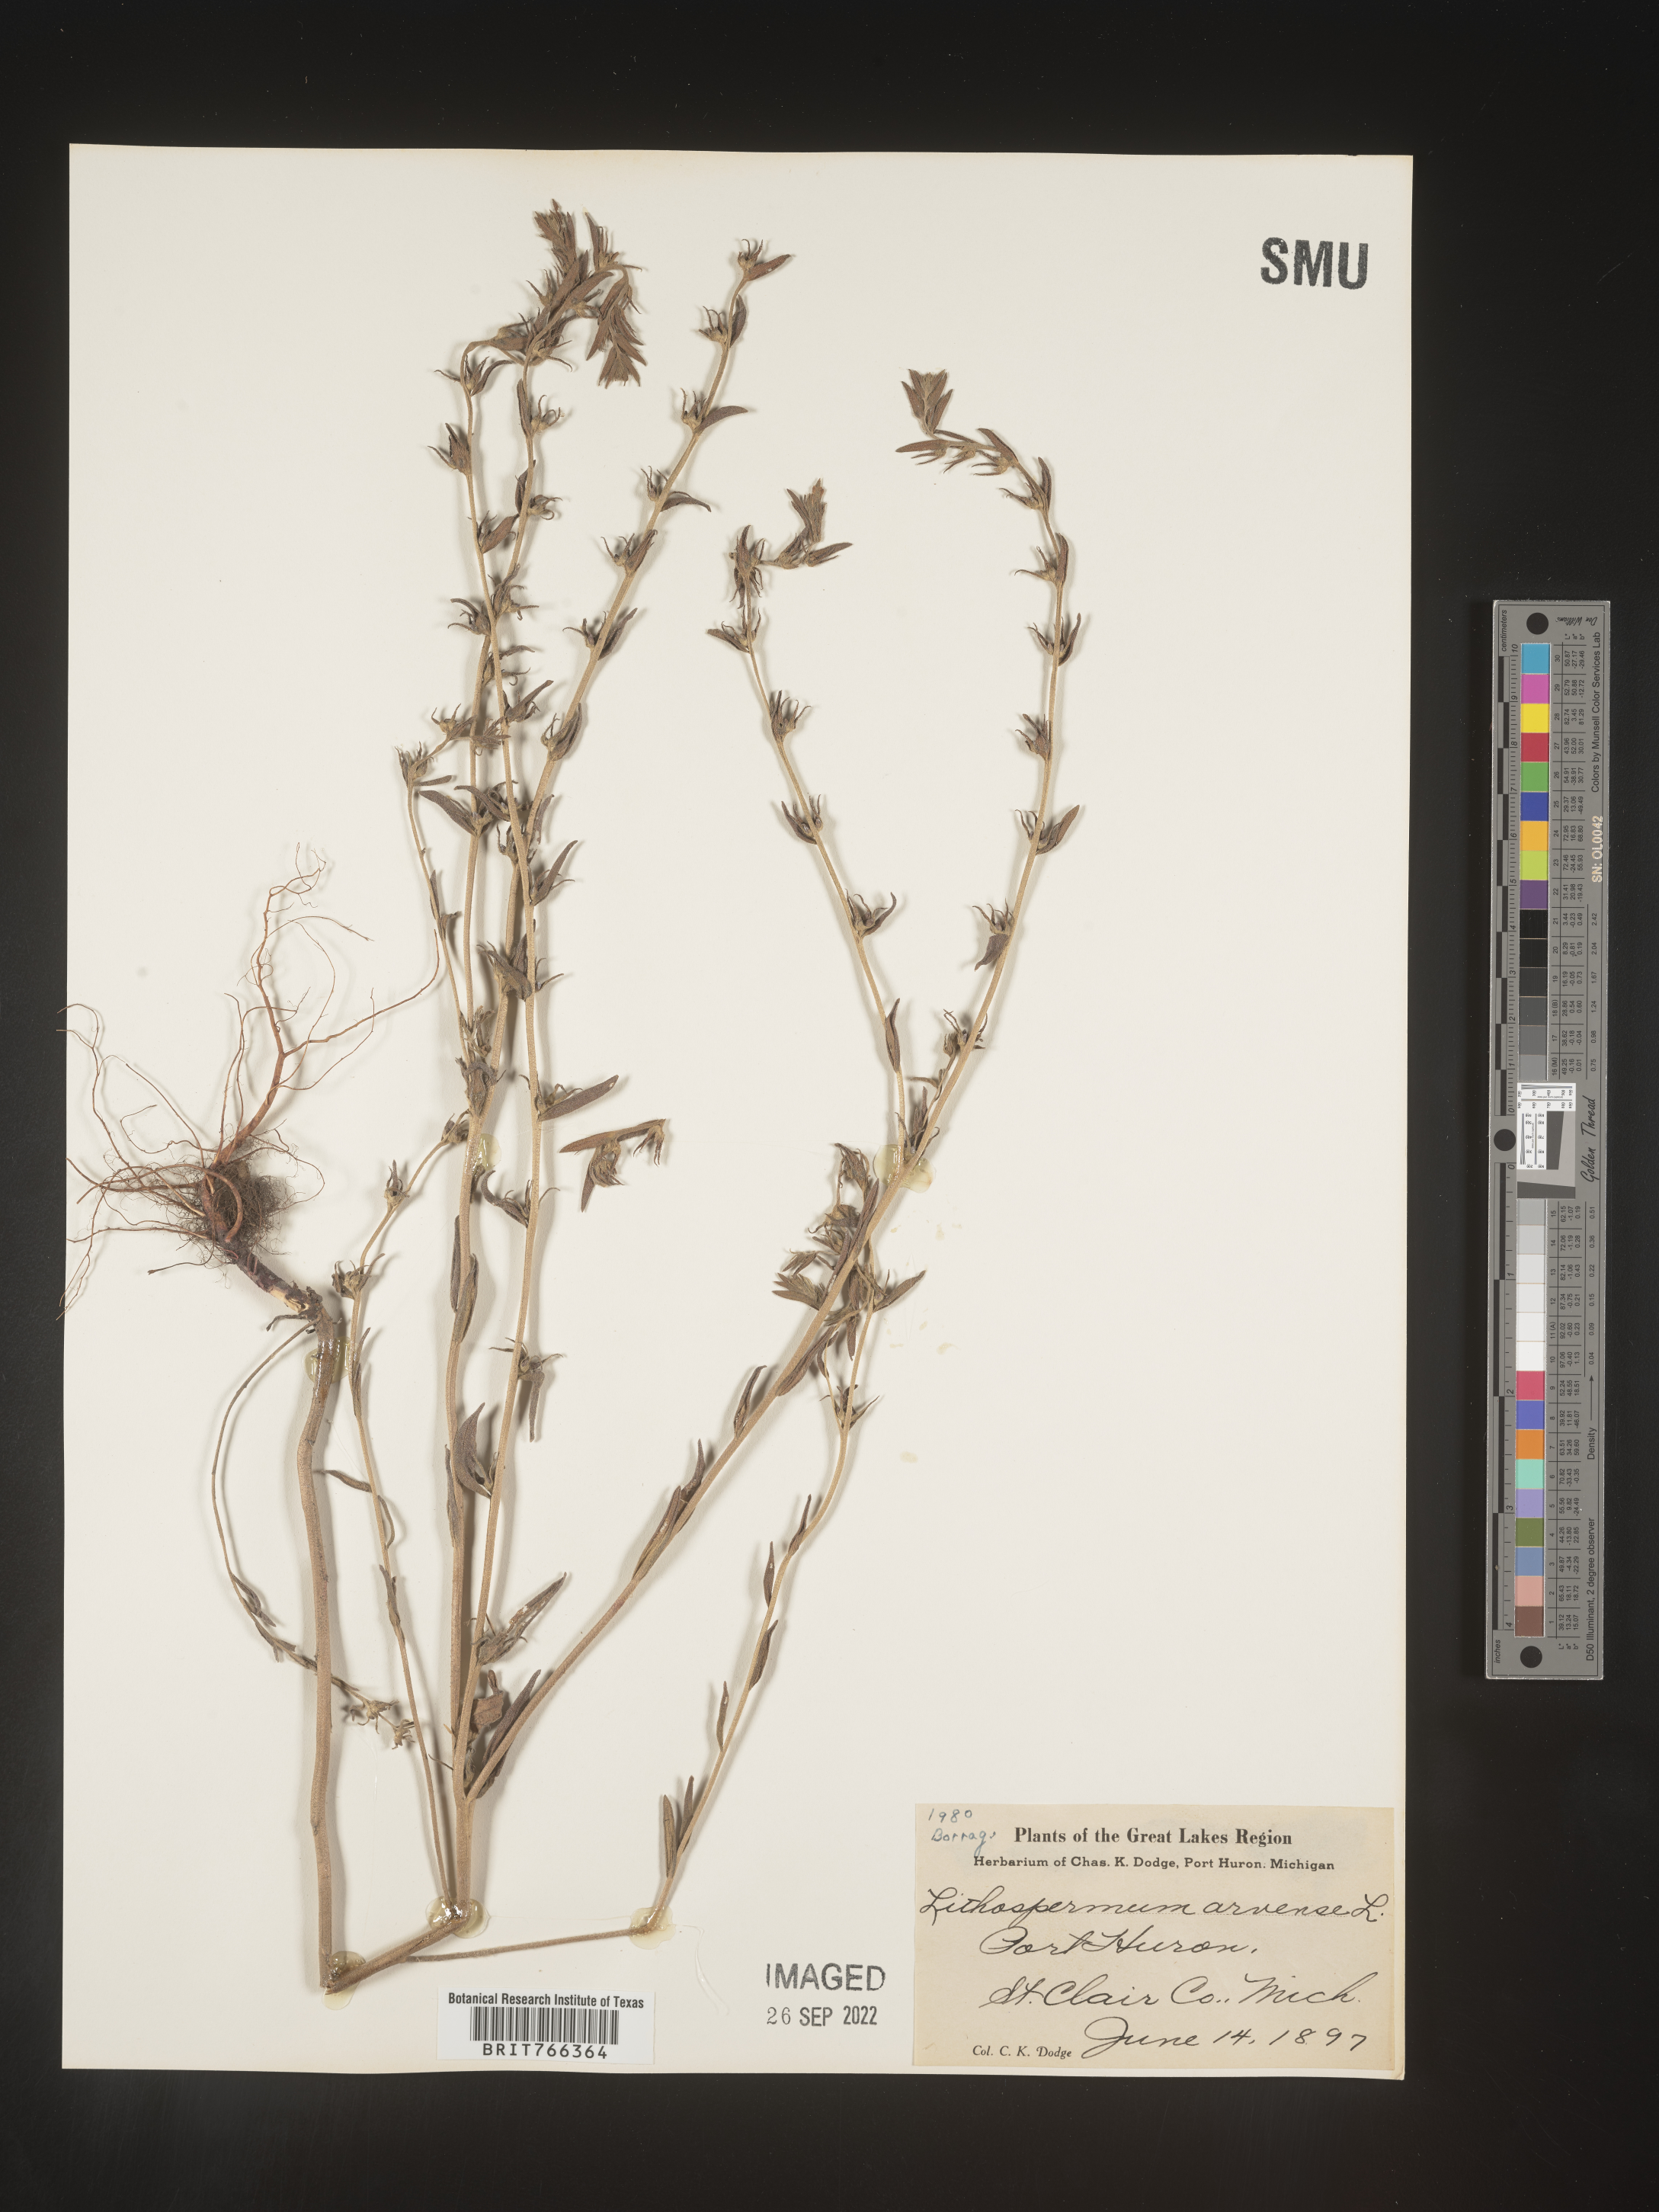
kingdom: Plantae
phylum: Tracheophyta
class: Magnoliopsida
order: Boraginales
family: Boraginaceae
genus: Buglossoides
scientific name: Buglossoides arvensis
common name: Corn gromwell
